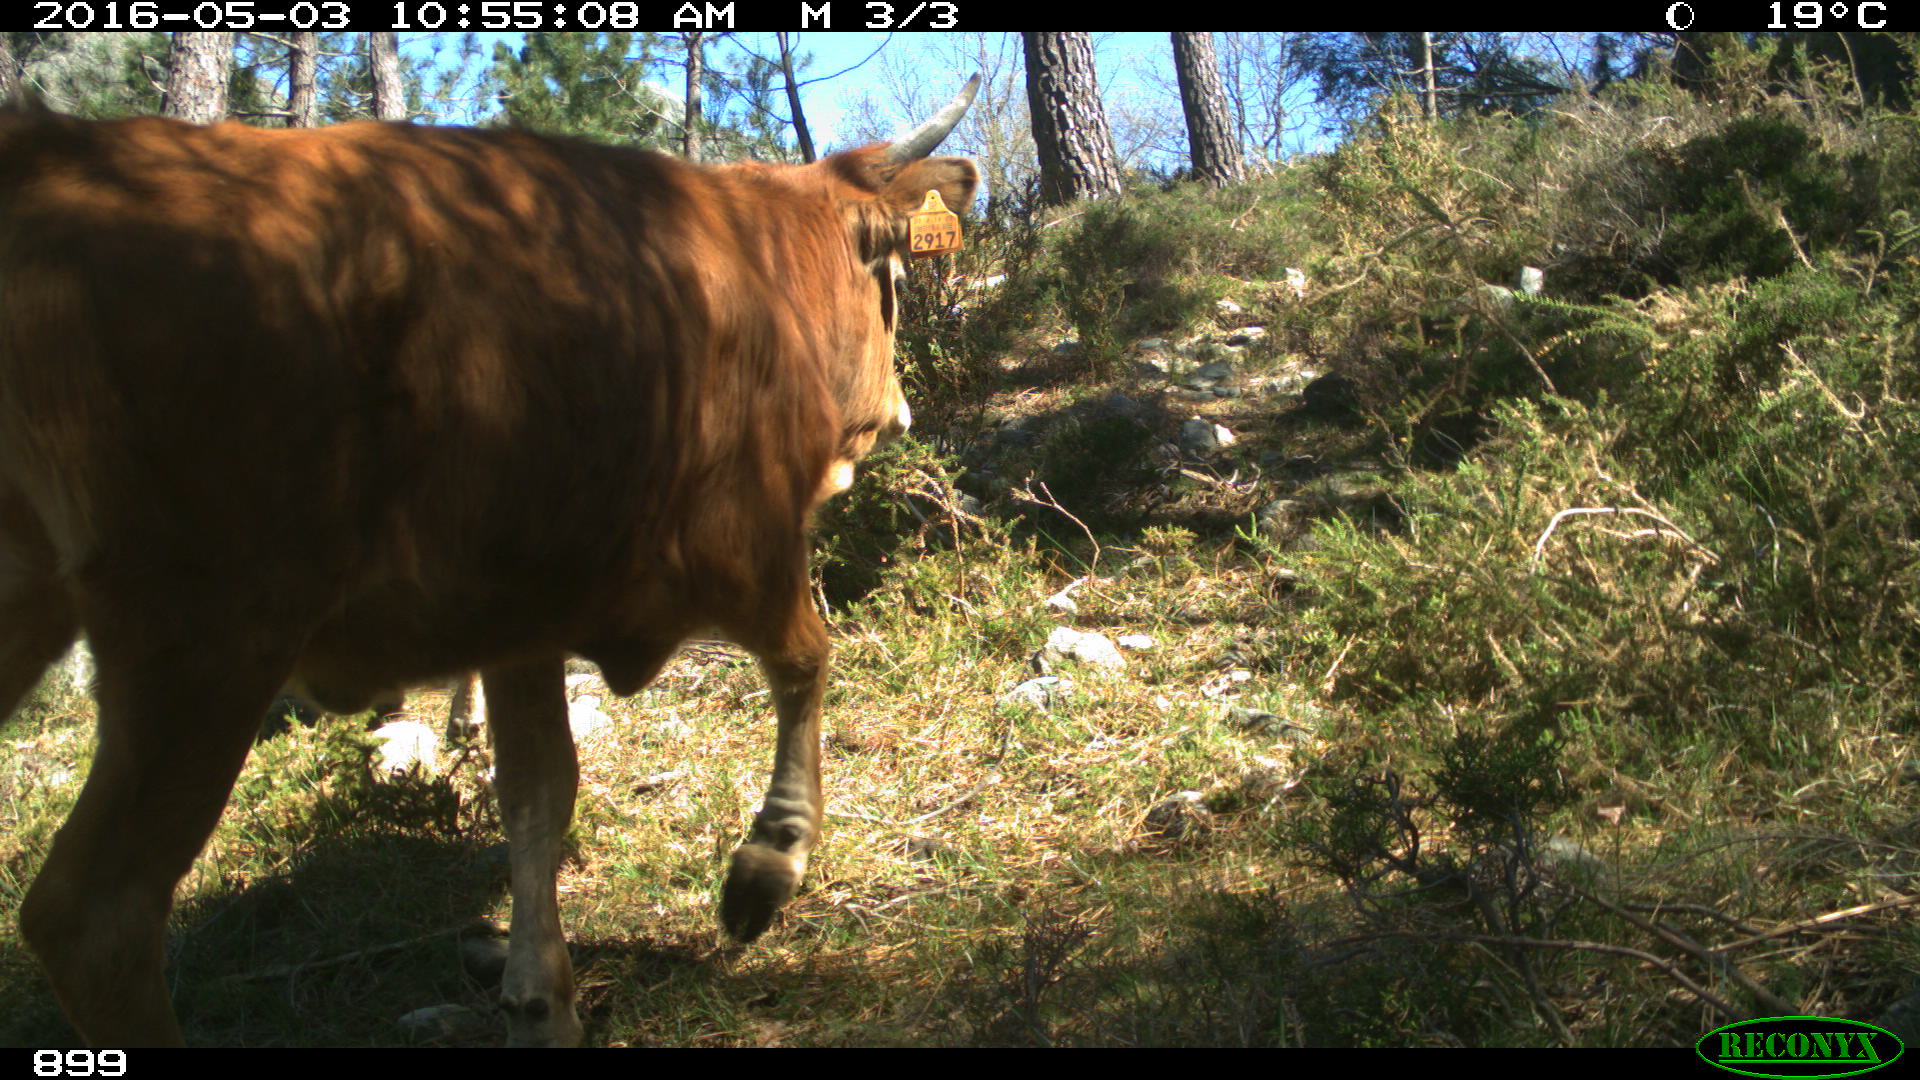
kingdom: Animalia
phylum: Chordata
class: Mammalia
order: Artiodactyla
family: Bovidae
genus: Bos
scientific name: Bos taurus
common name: Domesticated cattle
